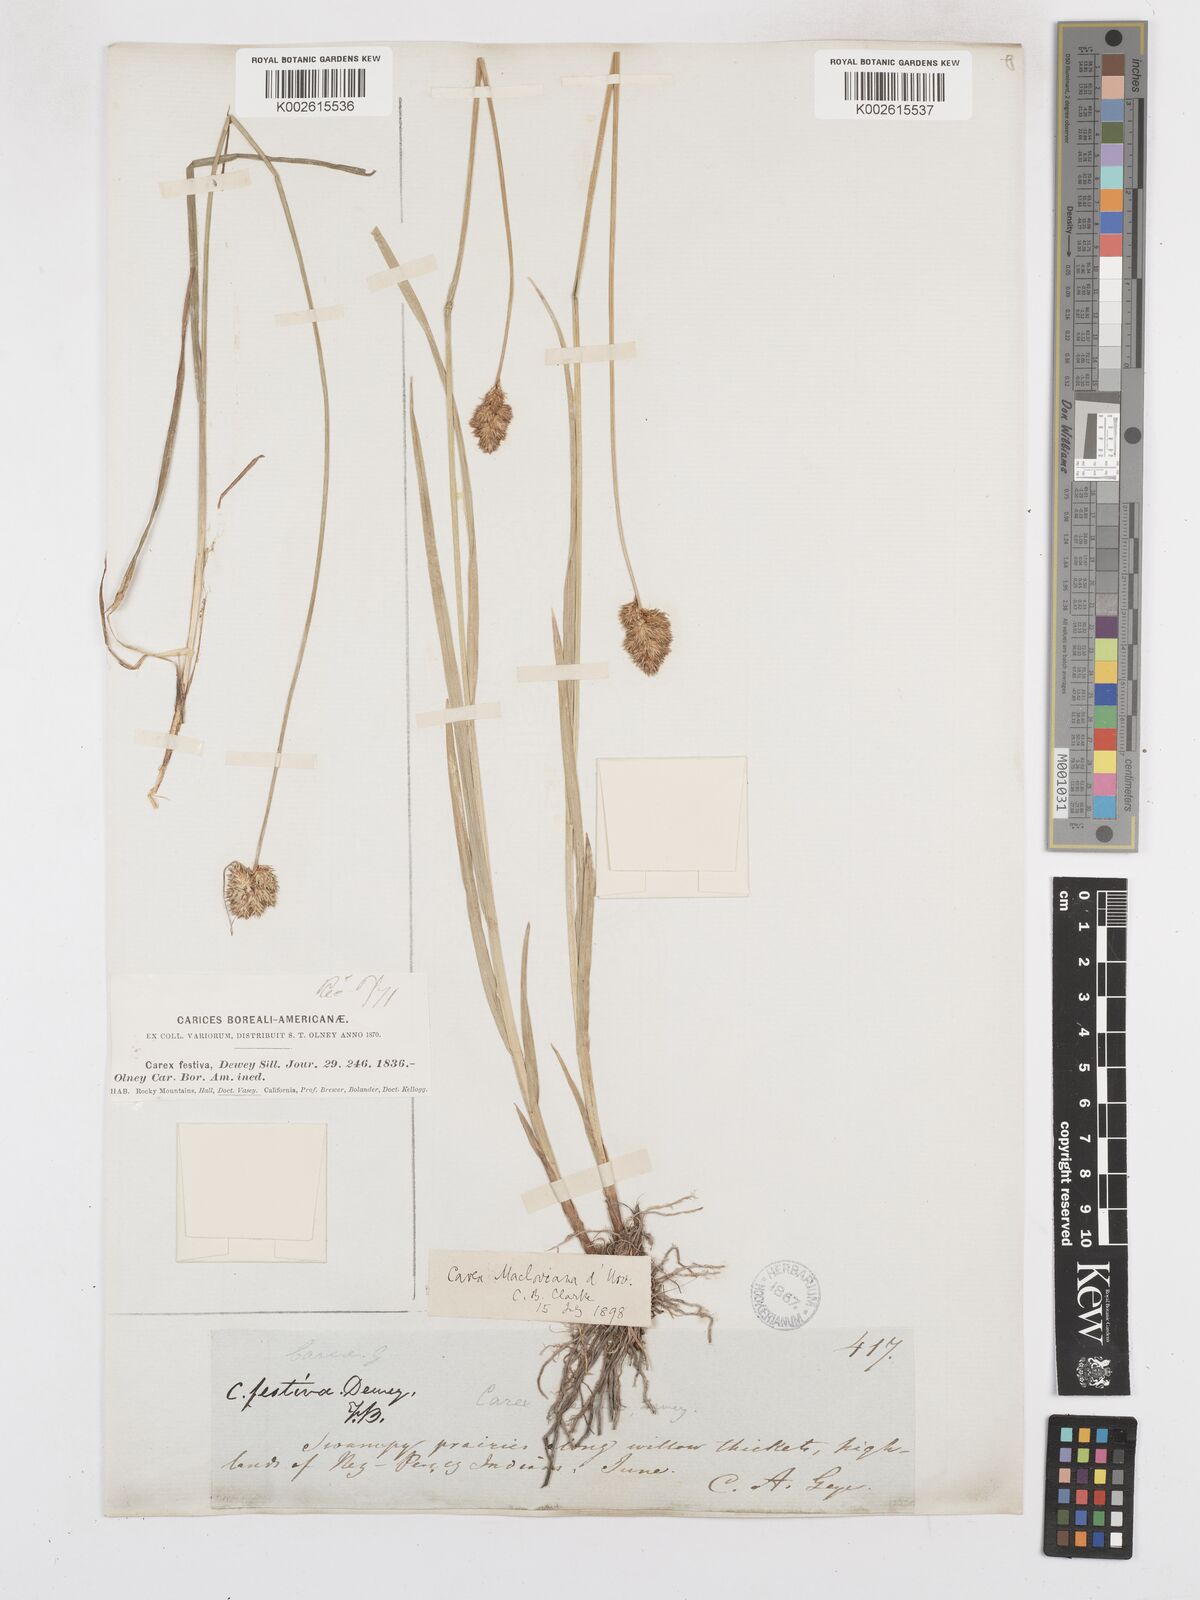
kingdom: Plantae
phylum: Tracheophyta
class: Liliopsida
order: Poales
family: Cyperaceae
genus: Carex
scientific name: Carex subfusca
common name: Brown sedge
